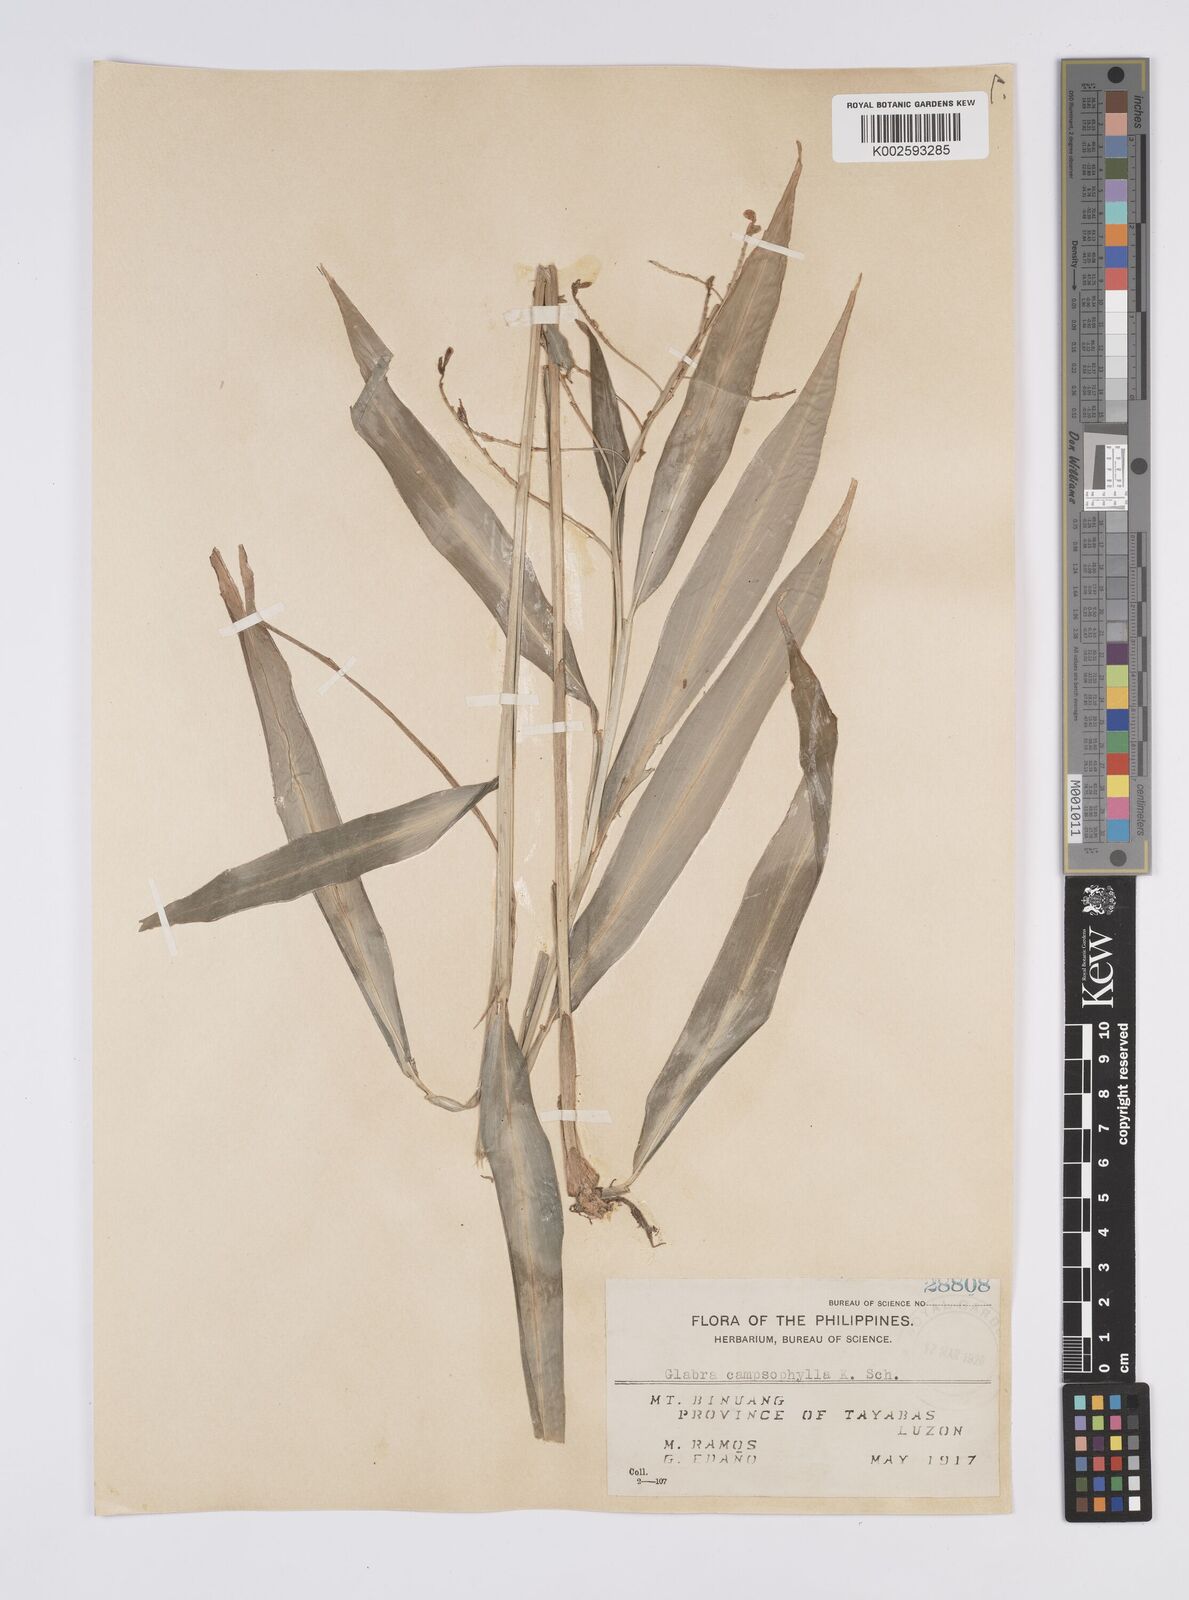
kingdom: Plantae
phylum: Tracheophyta
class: Liliopsida
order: Zingiberales
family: Zingiberaceae
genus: Globba
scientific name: Globba campsophylla
